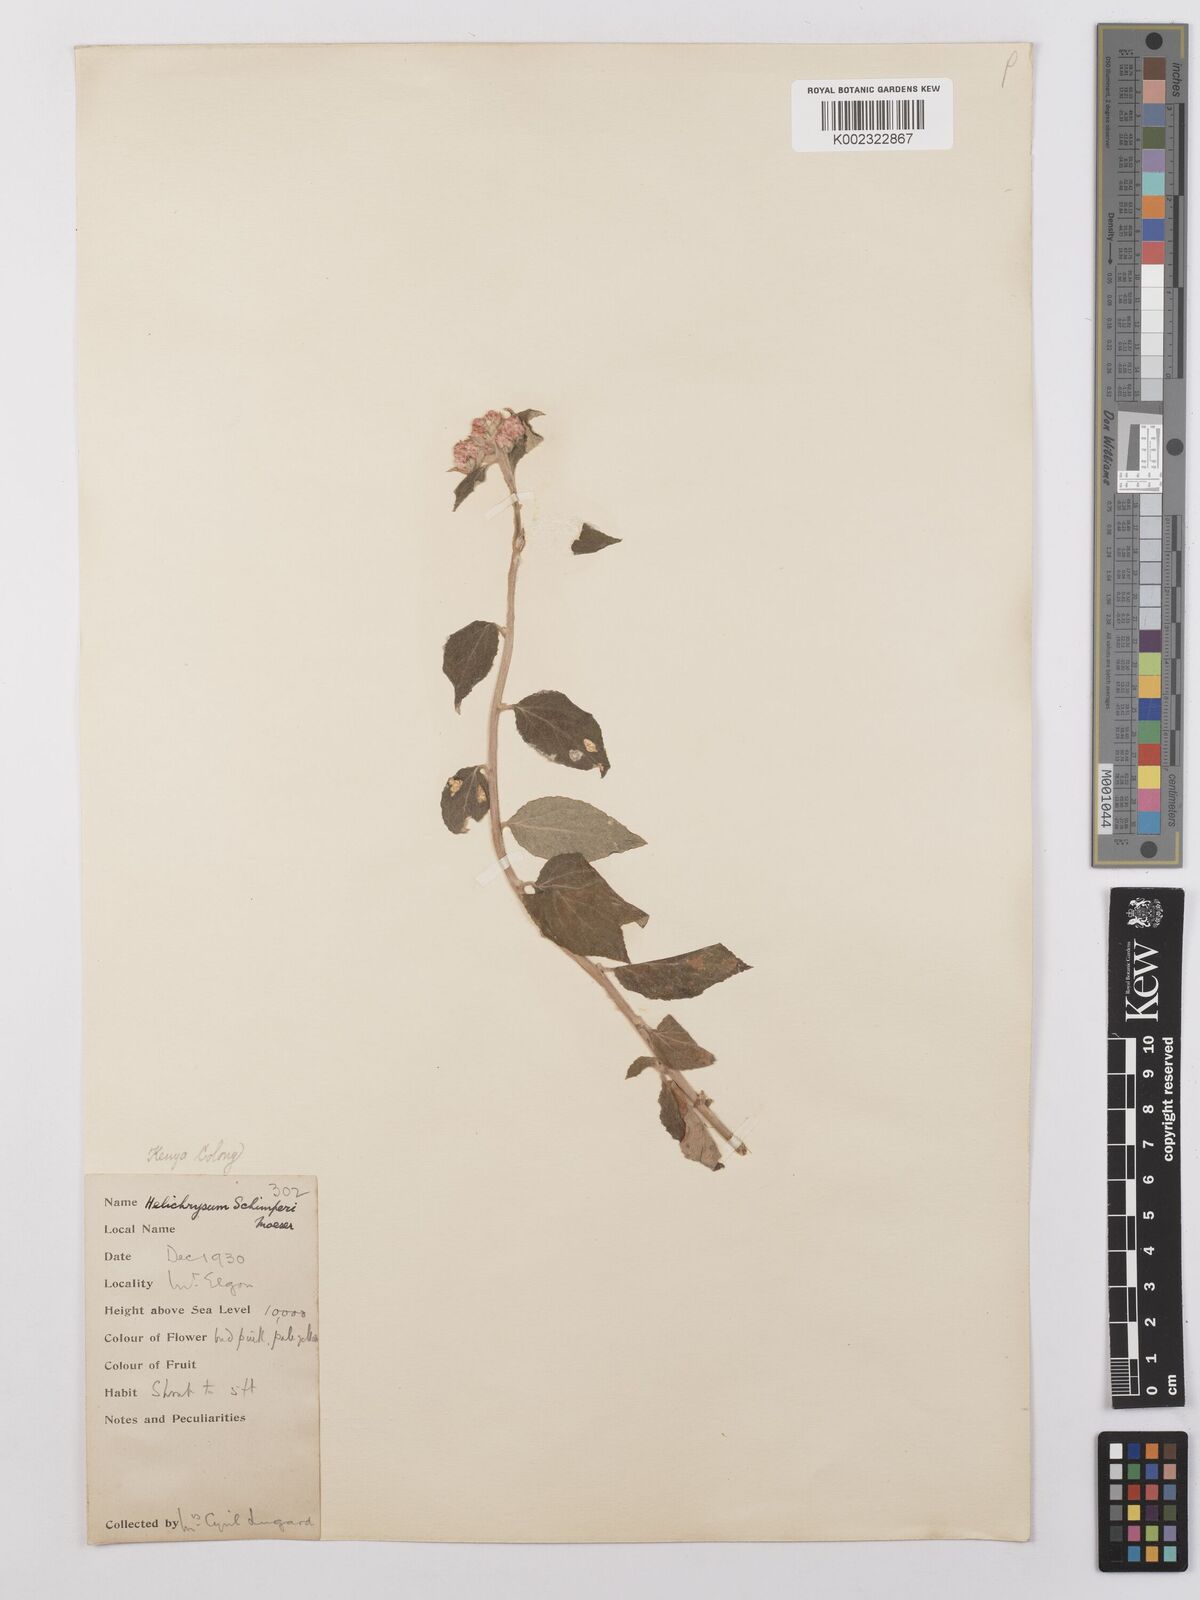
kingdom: Plantae
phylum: Tracheophyta
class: Magnoliopsida
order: Asterales
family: Asteraceae
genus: Helichrysum
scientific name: Helichrysum schimperi
